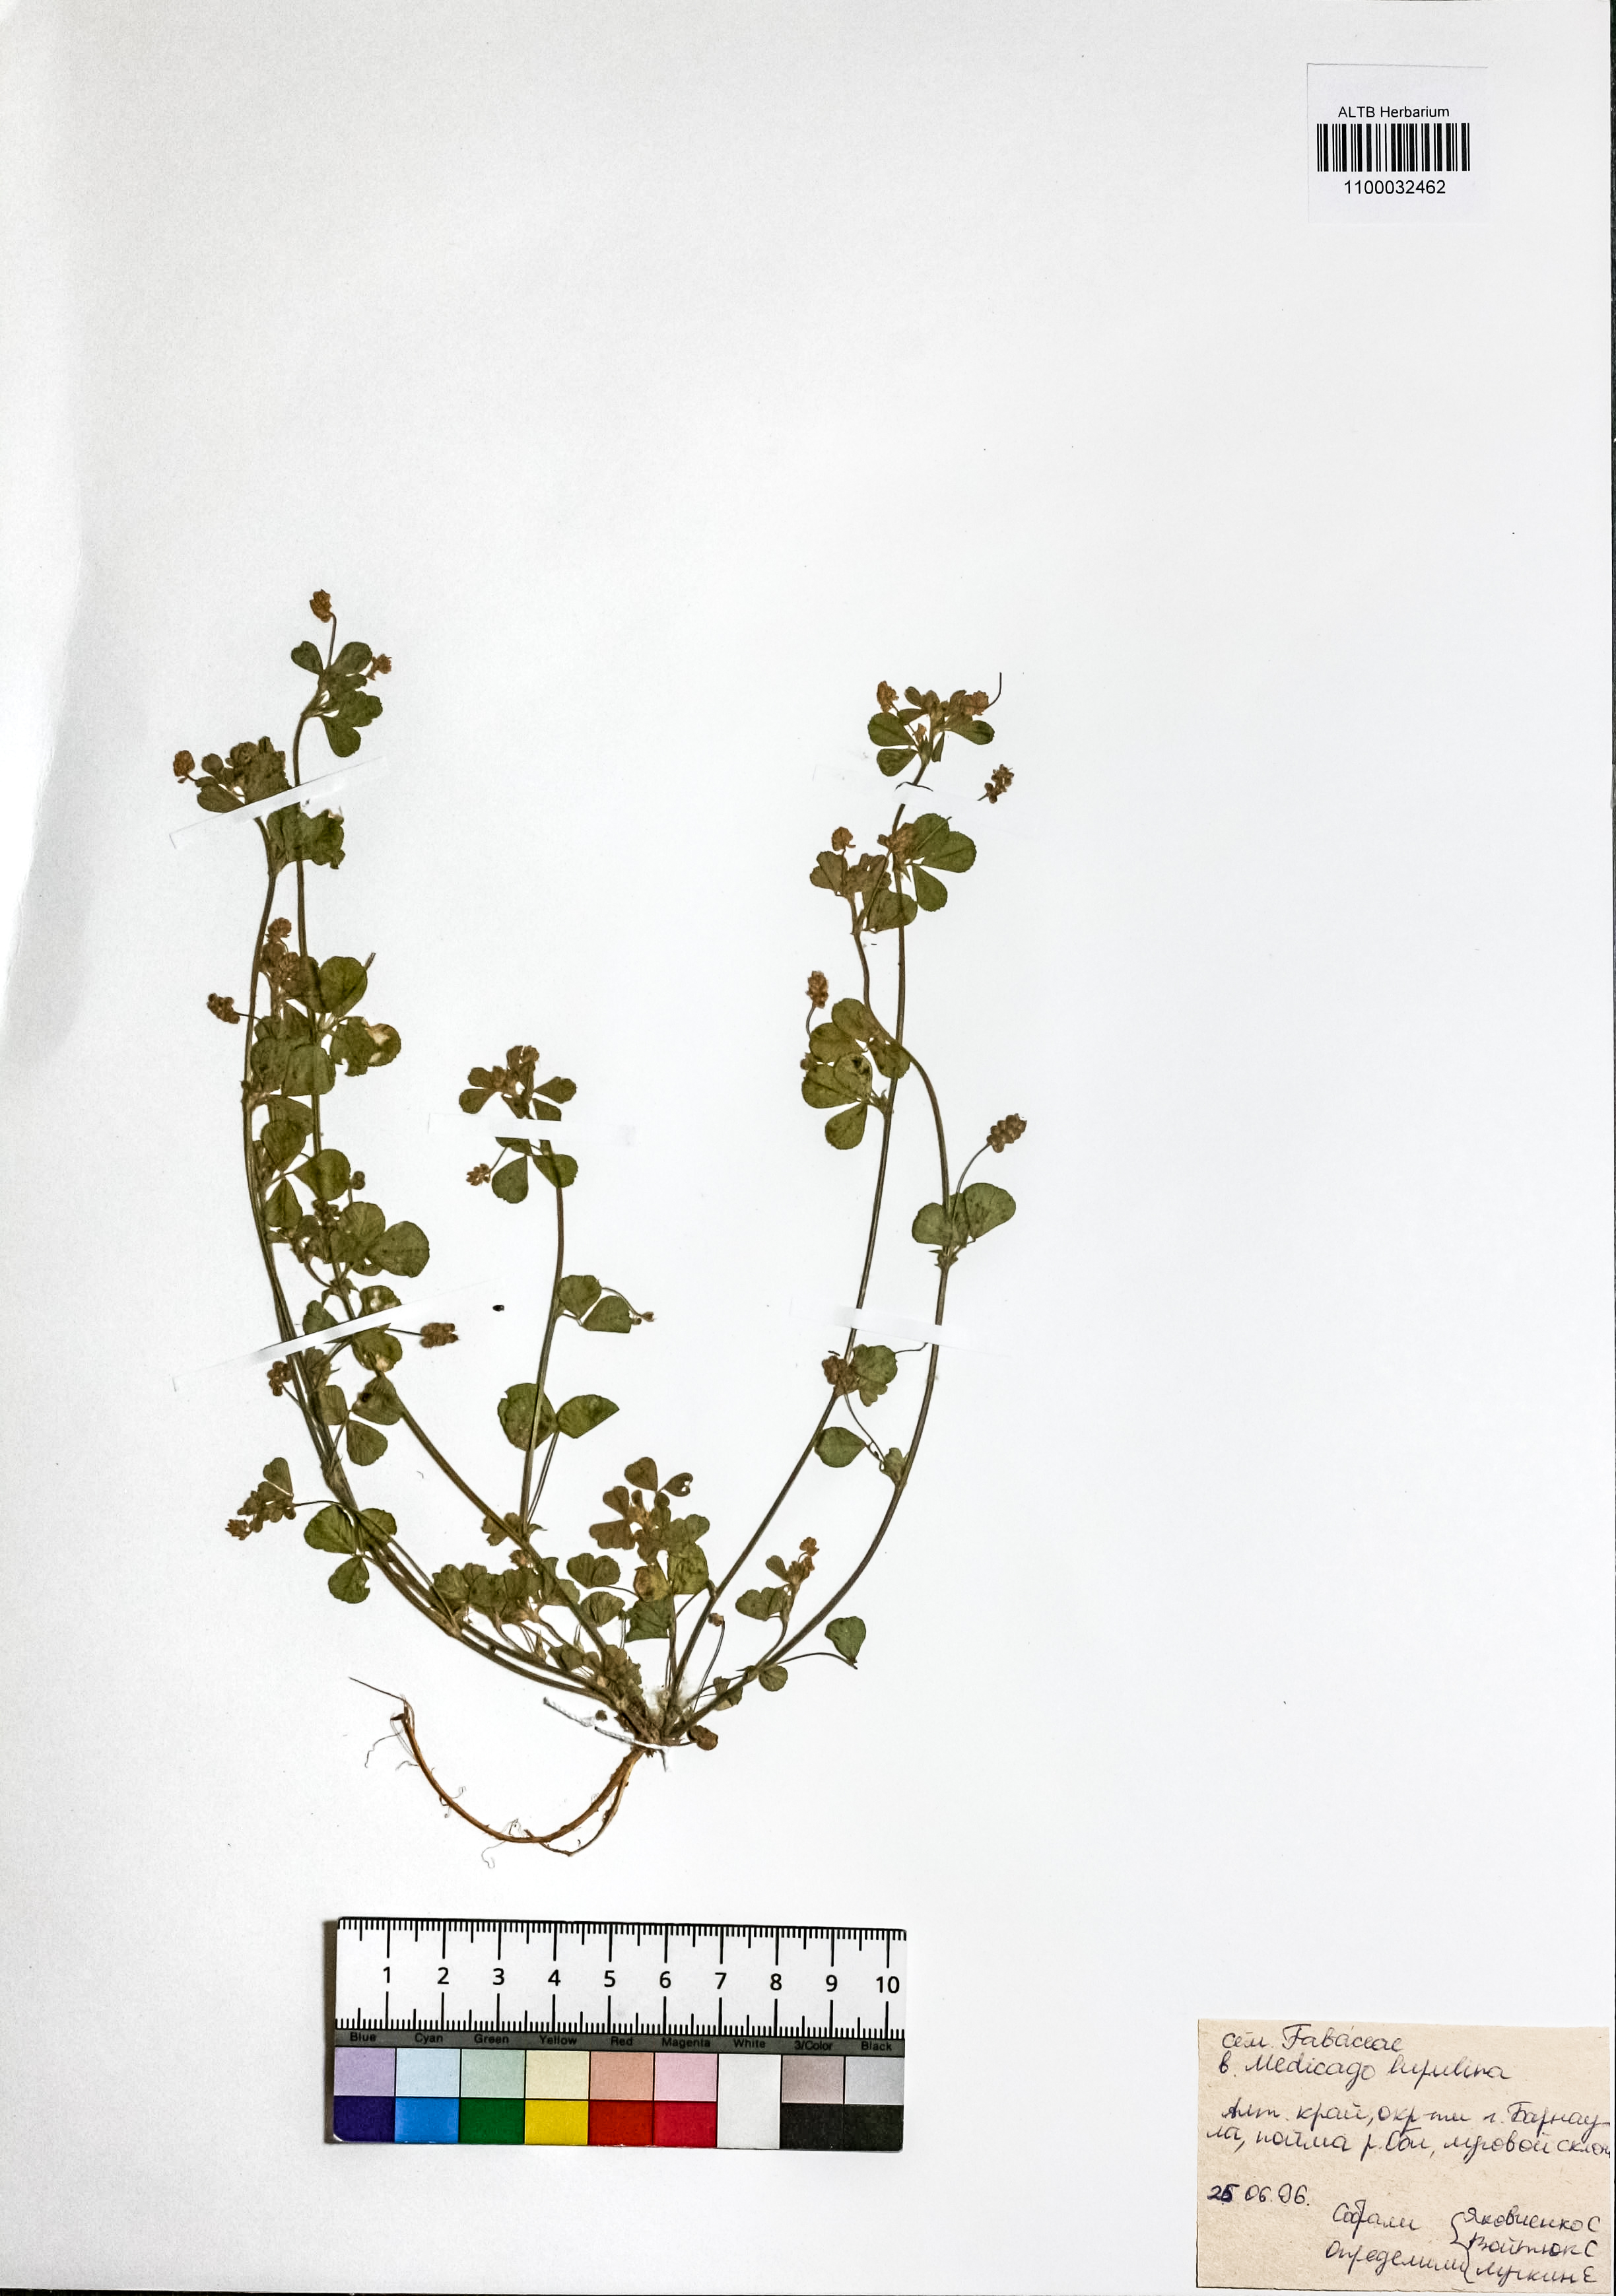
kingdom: Plantae
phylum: Tracheophyta
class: Magnoliopsida
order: Fabales
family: Fabaceae
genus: Medicago
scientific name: Medicago lupulina
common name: Black medick
